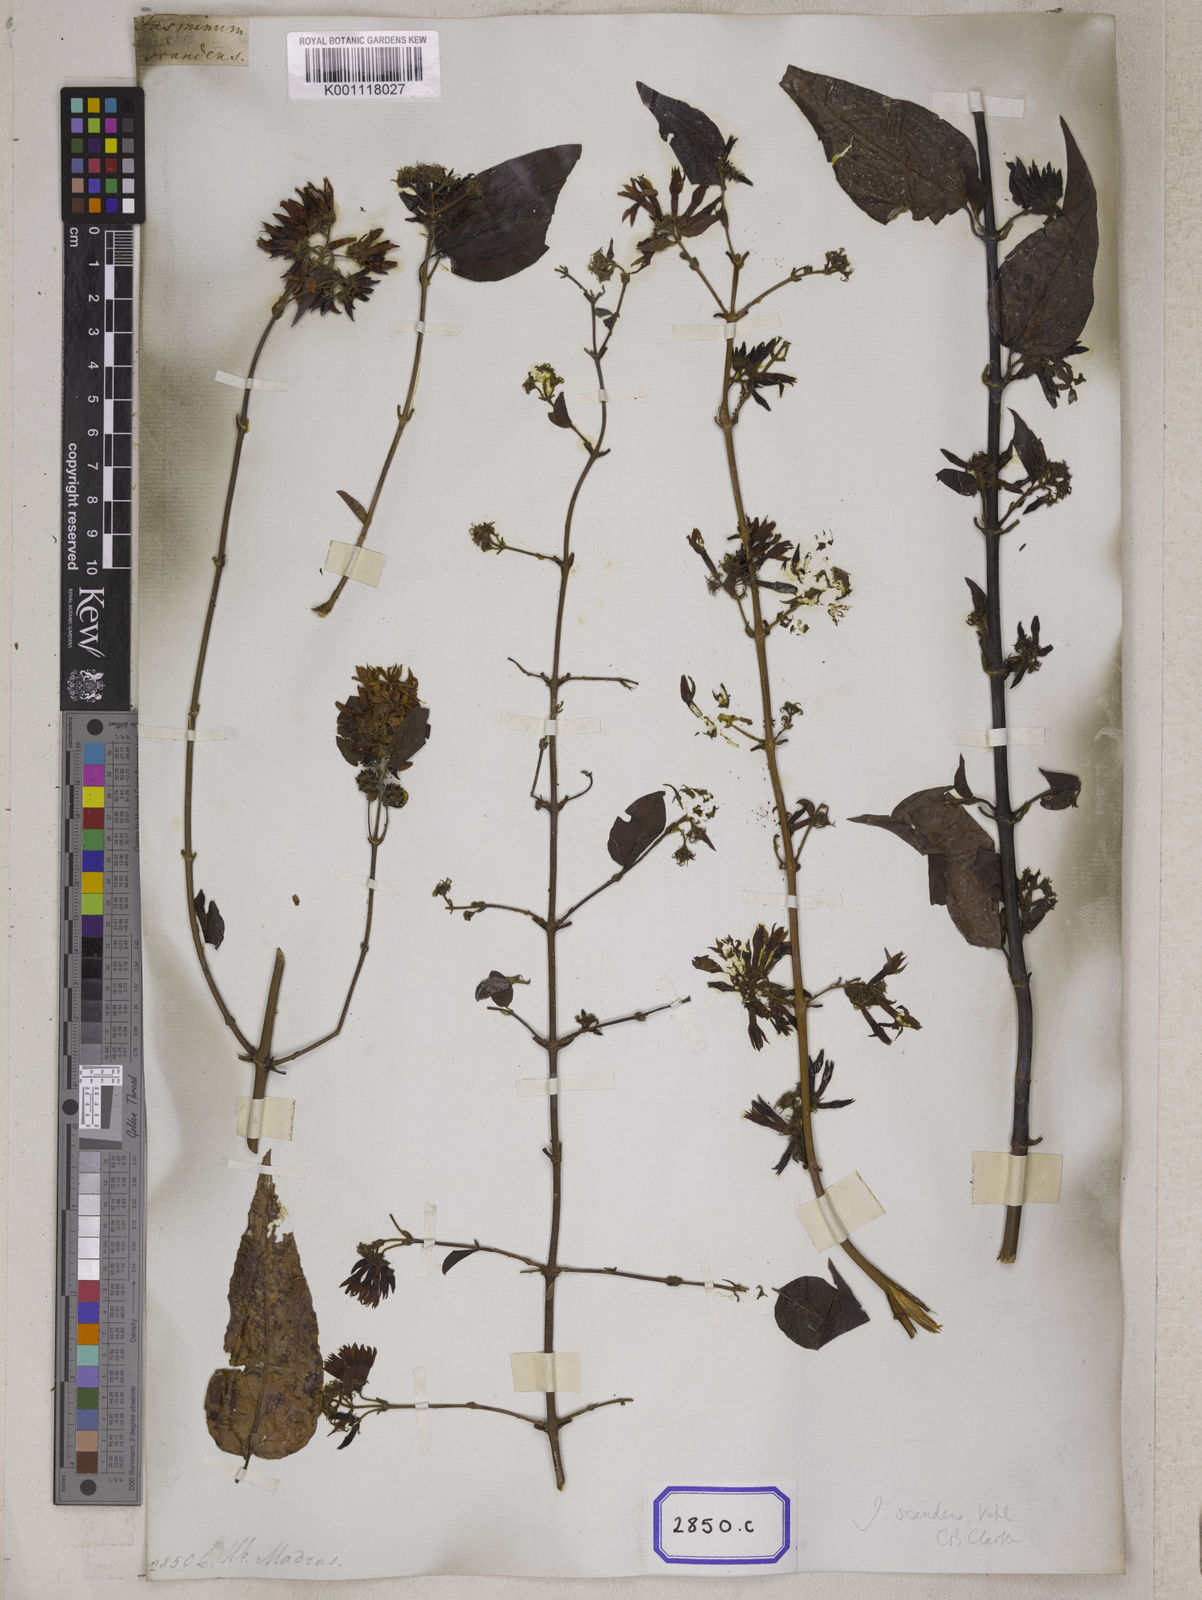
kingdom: Plantae
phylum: Tracheophyta
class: Magnoliopsida
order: Lamiales
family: Oleaceae
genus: Jasminum
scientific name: Jasminum scandens
